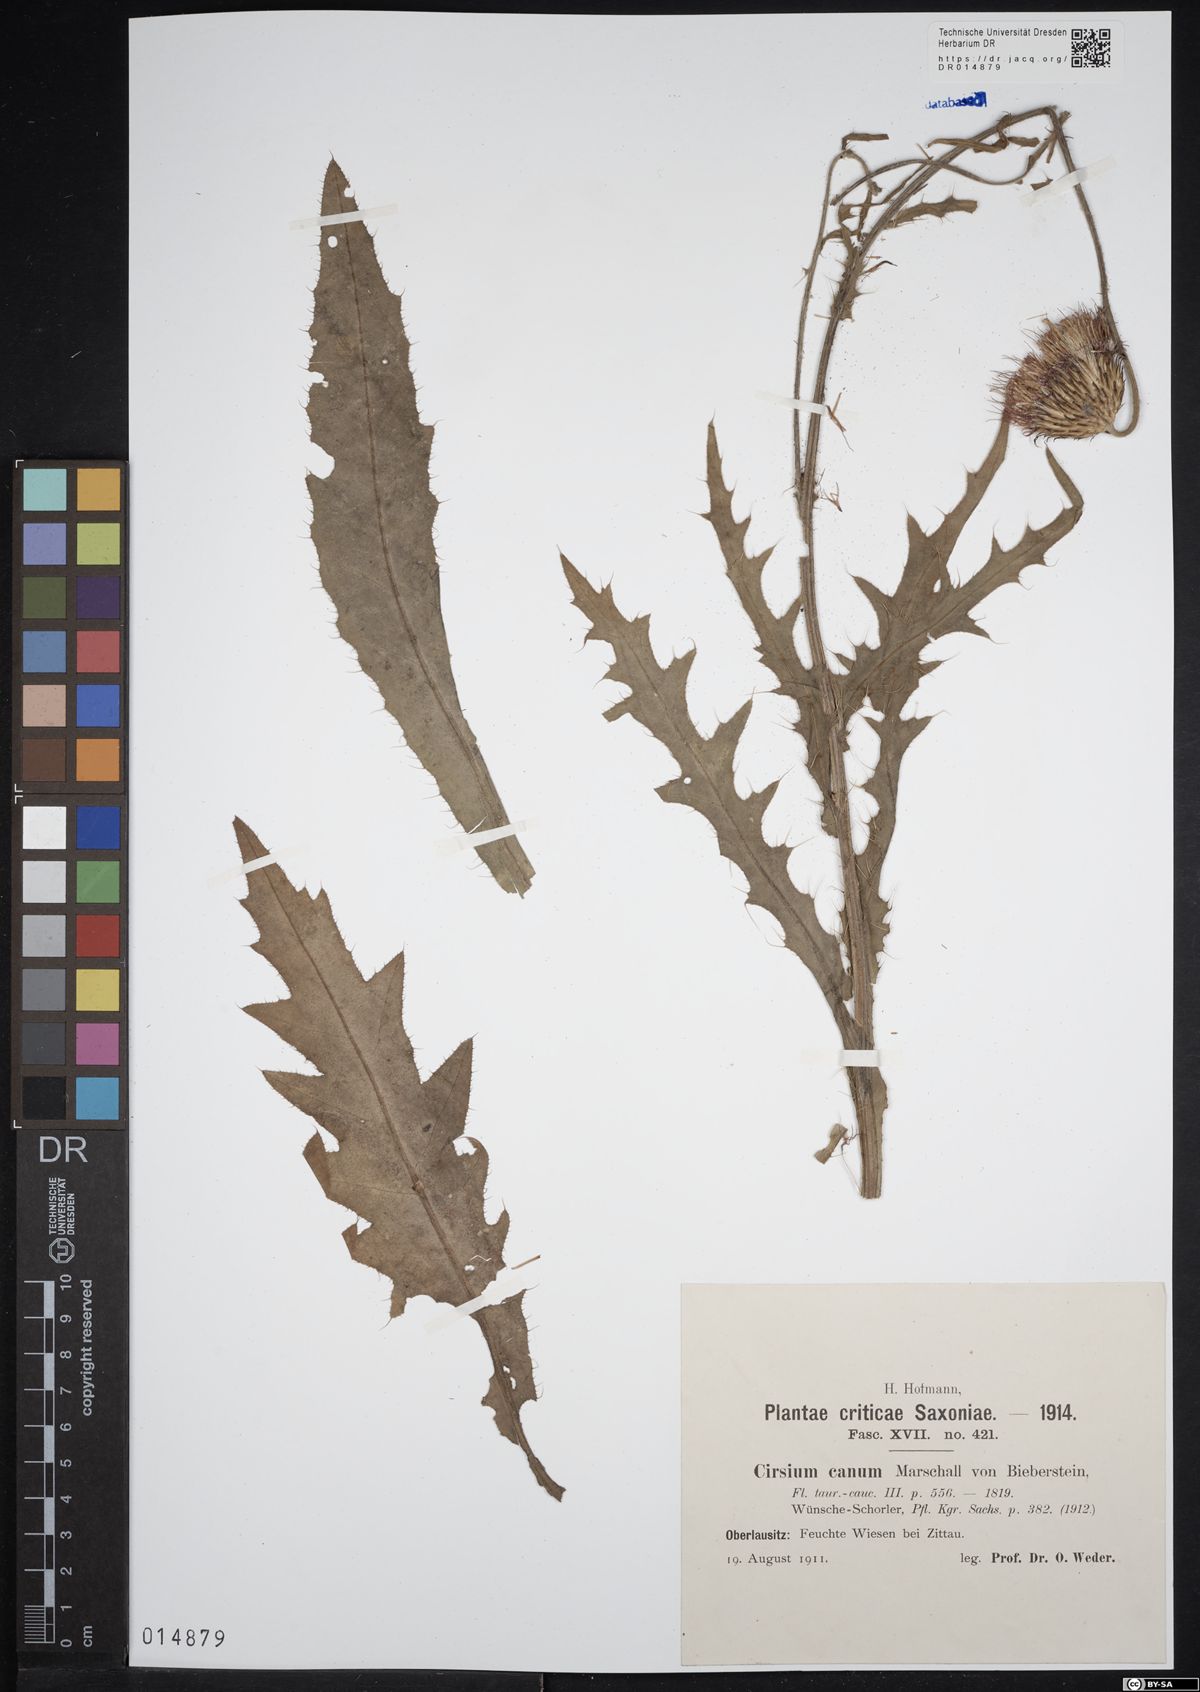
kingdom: Plantae
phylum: Tracheophyta
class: Magnoliopsida
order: Asterales
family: Asteraceae
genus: Cirsium
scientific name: Cirsium canum
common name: Queen anne's thistle
